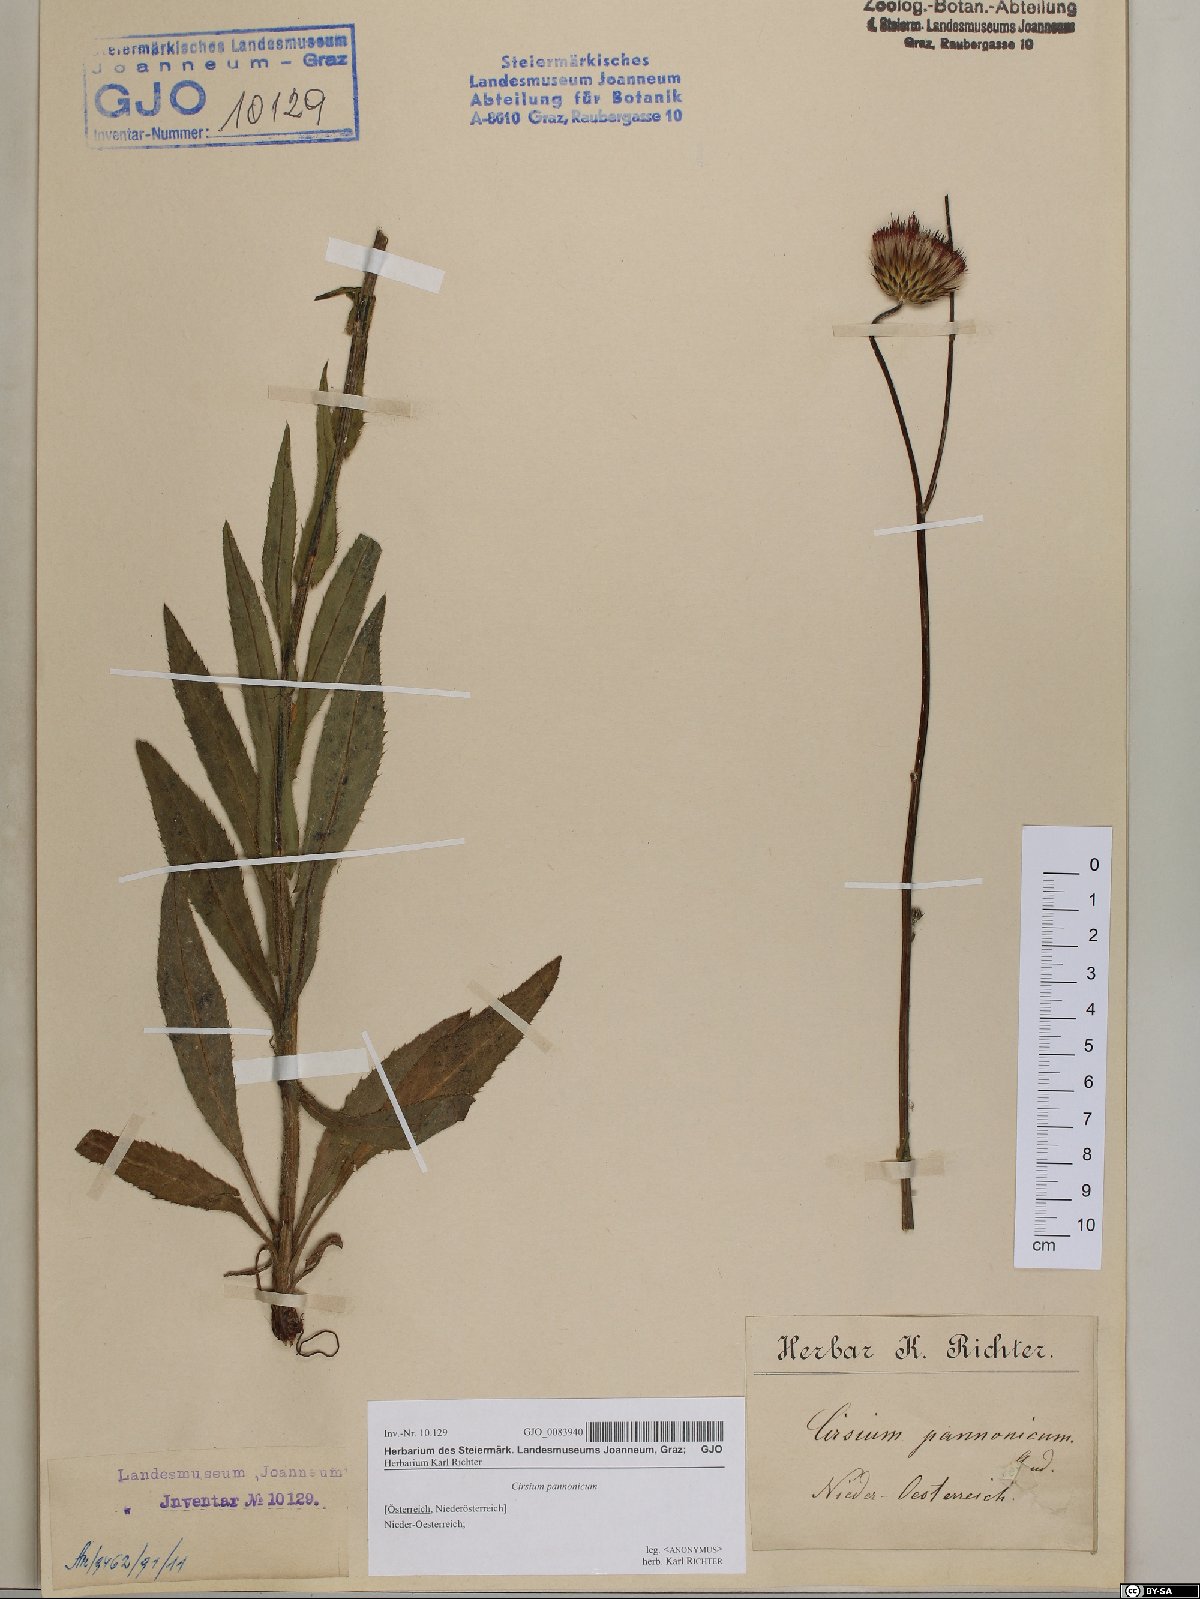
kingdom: Plantae
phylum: Tracheophyta
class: Magnoliopsida
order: Asterales
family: Asteraceae
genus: Cirsium
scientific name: Cirsium pannonicum
